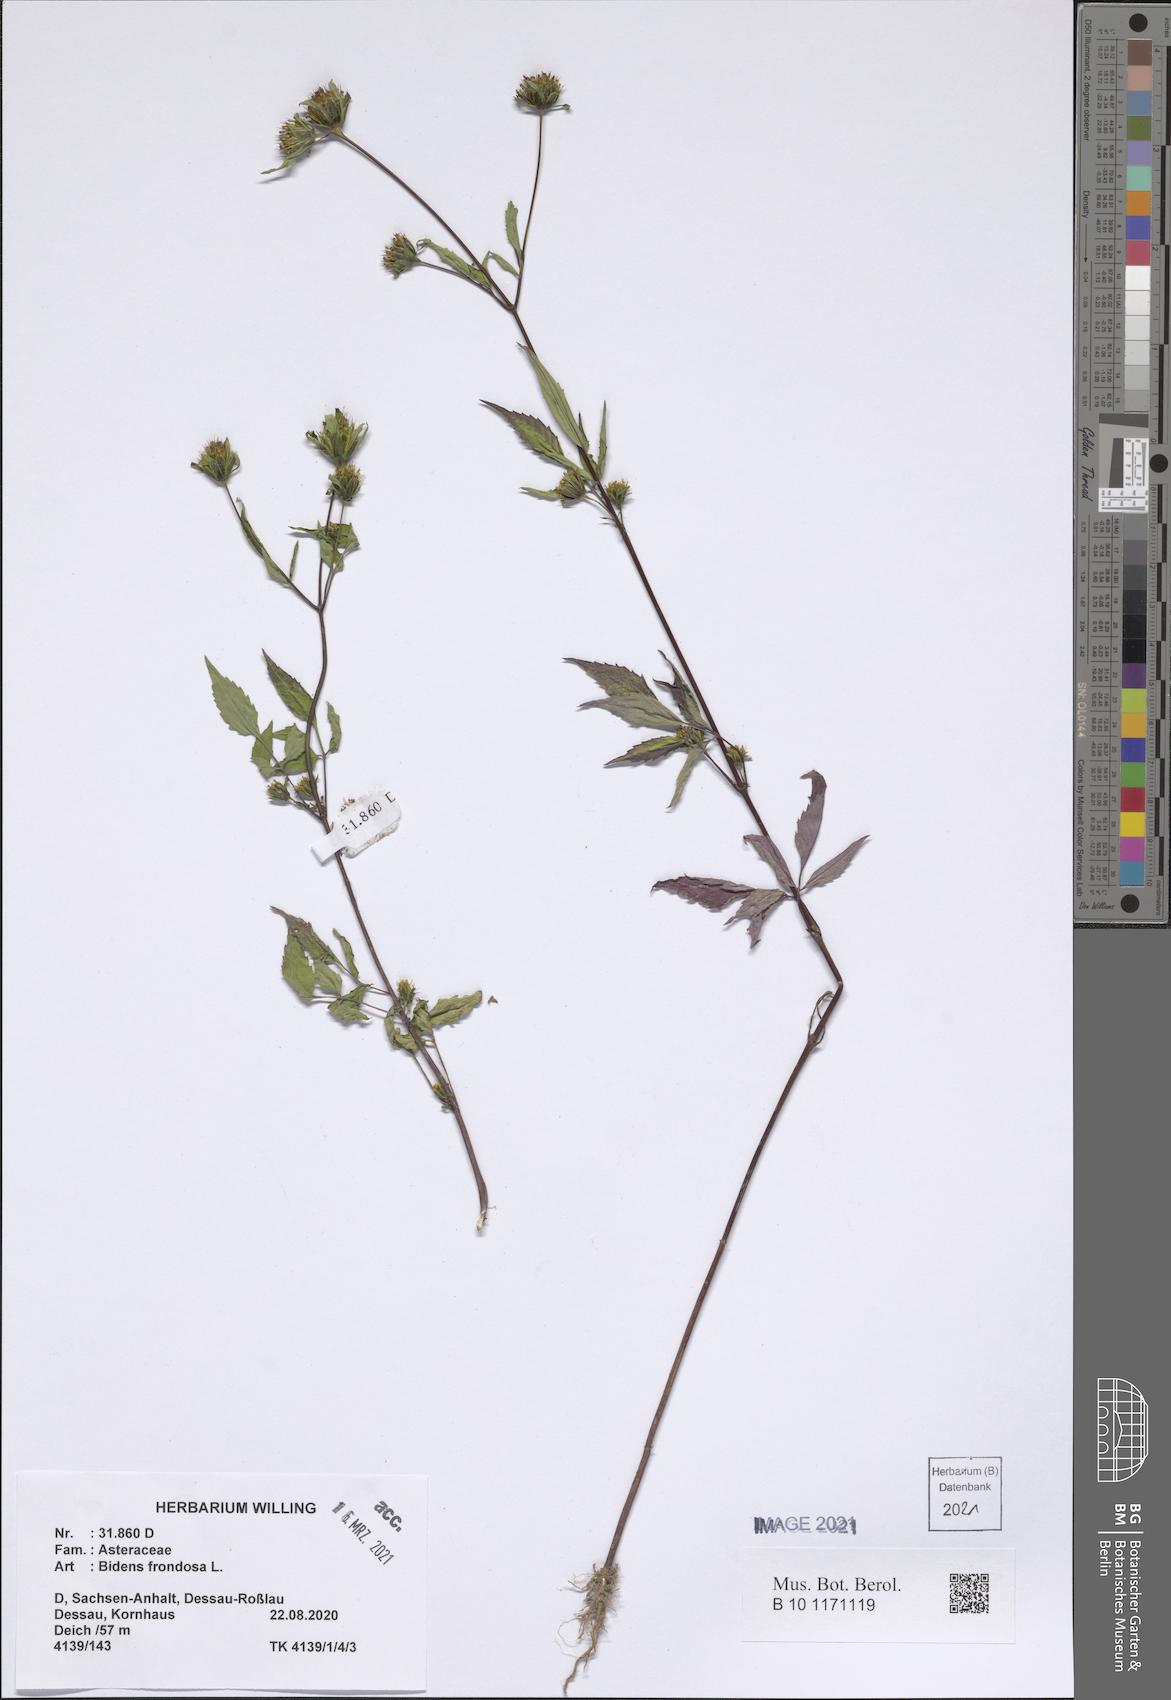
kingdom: Plantae
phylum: Tracheophyta
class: Magnoliopsida
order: Asterales
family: Asteraceae
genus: Bidens
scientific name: Bidens frondosa
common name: Beggarticks
